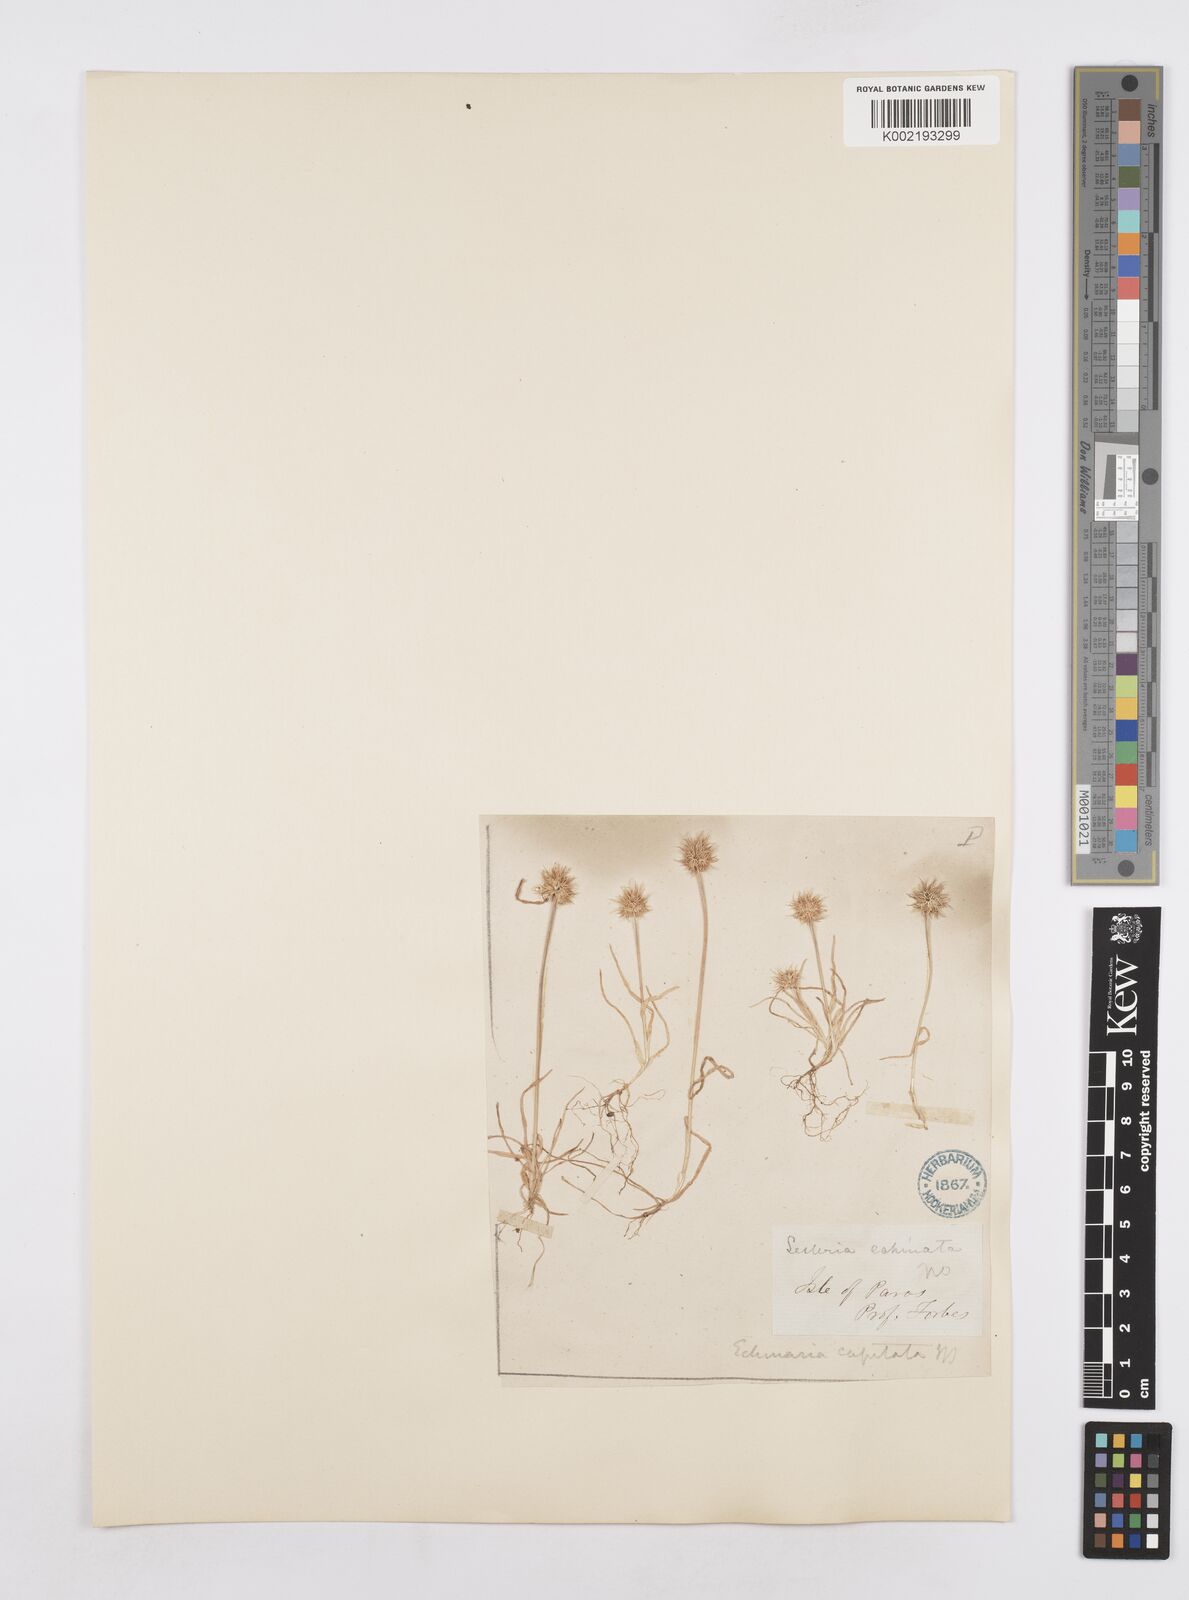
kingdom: Plantae
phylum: Tracheophyta
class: Liliopsida
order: Poales
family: Poaceae
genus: Echinaria
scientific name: Echinaria capitata
